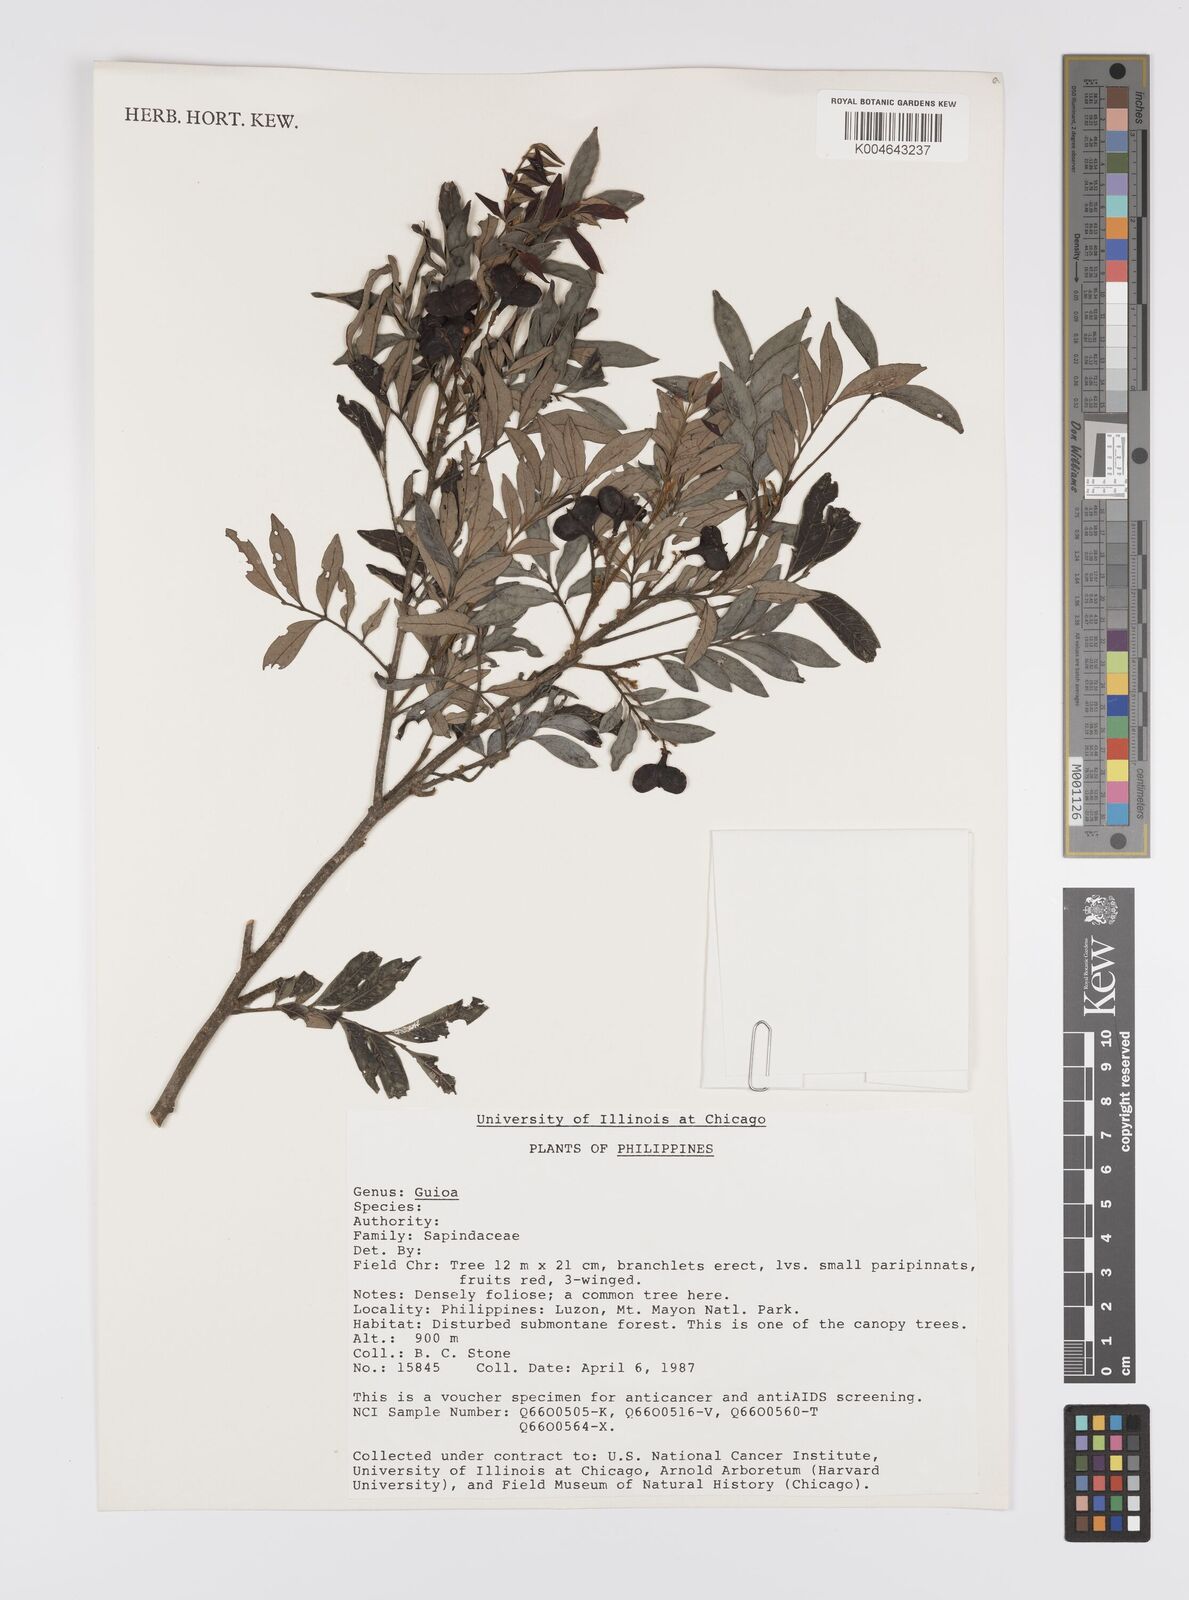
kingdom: Plantae
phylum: Tracheophyta
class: Magnoliopsida
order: Sapindales
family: Sapindaceae
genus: Guioa
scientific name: Guioa
